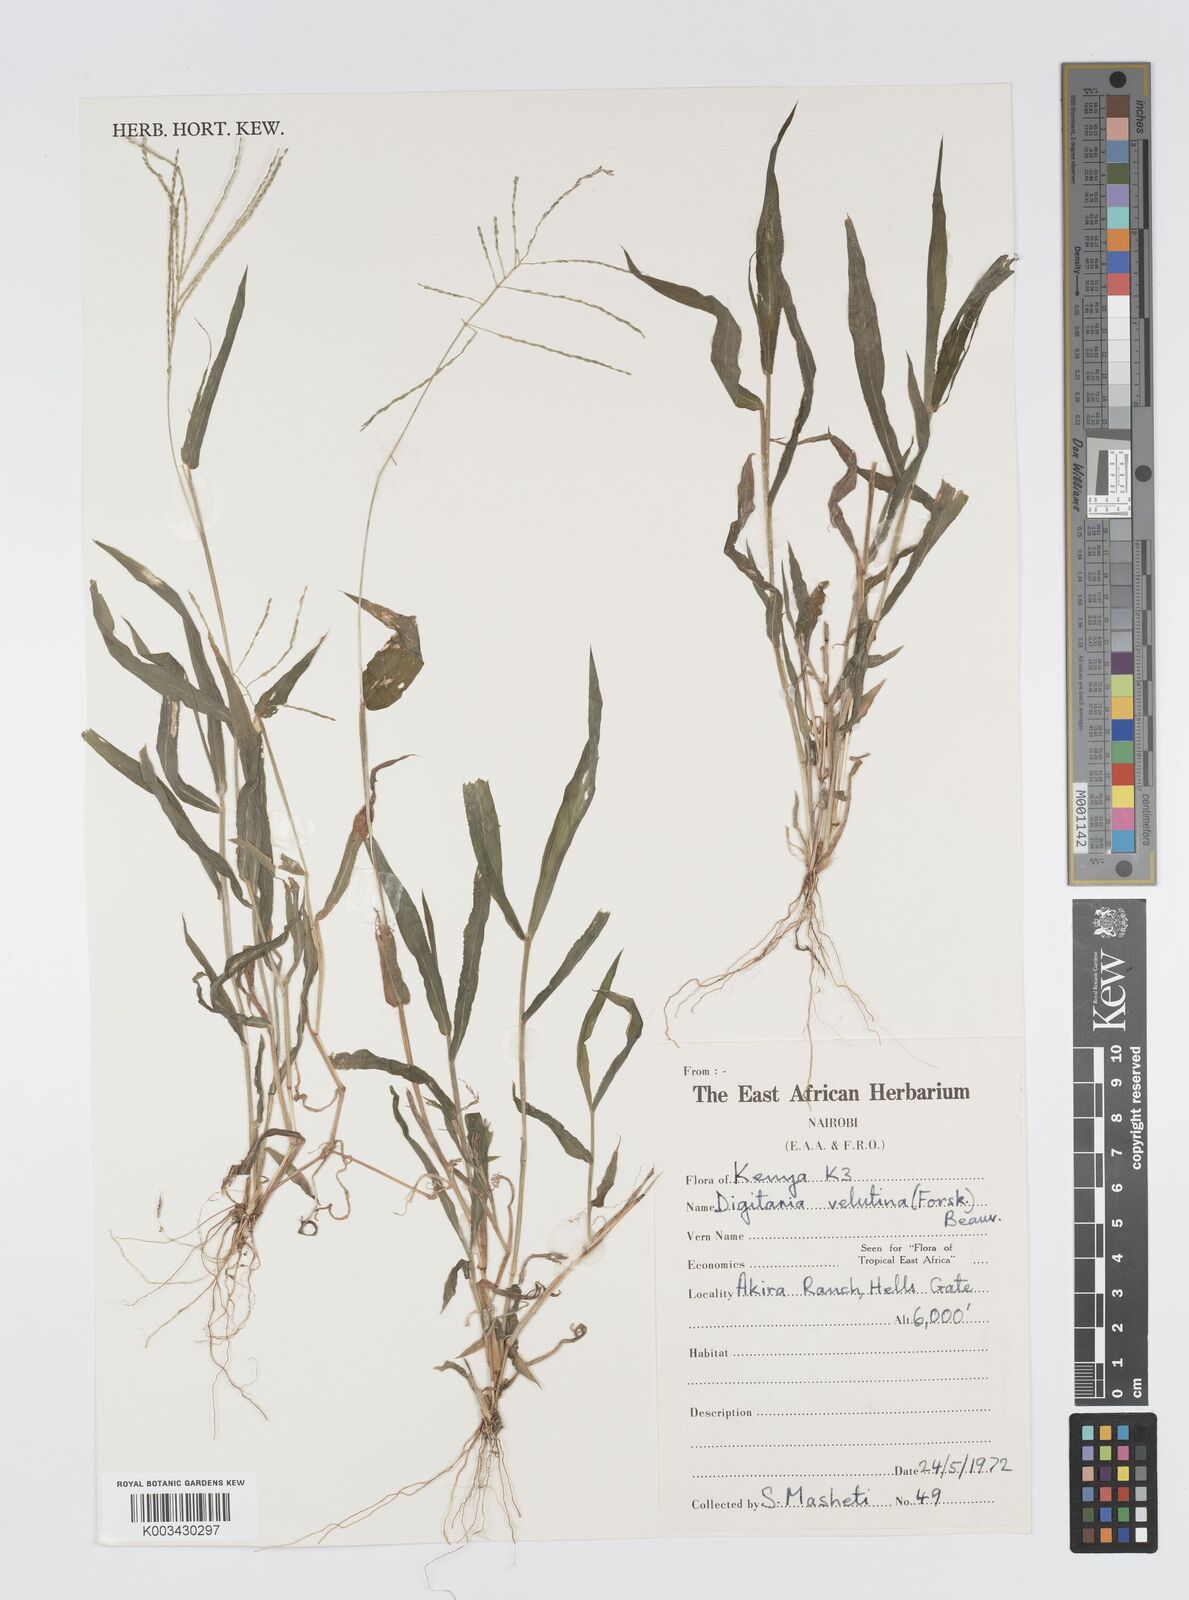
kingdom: Plantae
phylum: Tracheophyta
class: Liliopsida
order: Poales
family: Poaceae
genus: Digitaria
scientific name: Digitaria velutina
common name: Long-plume finger grass
